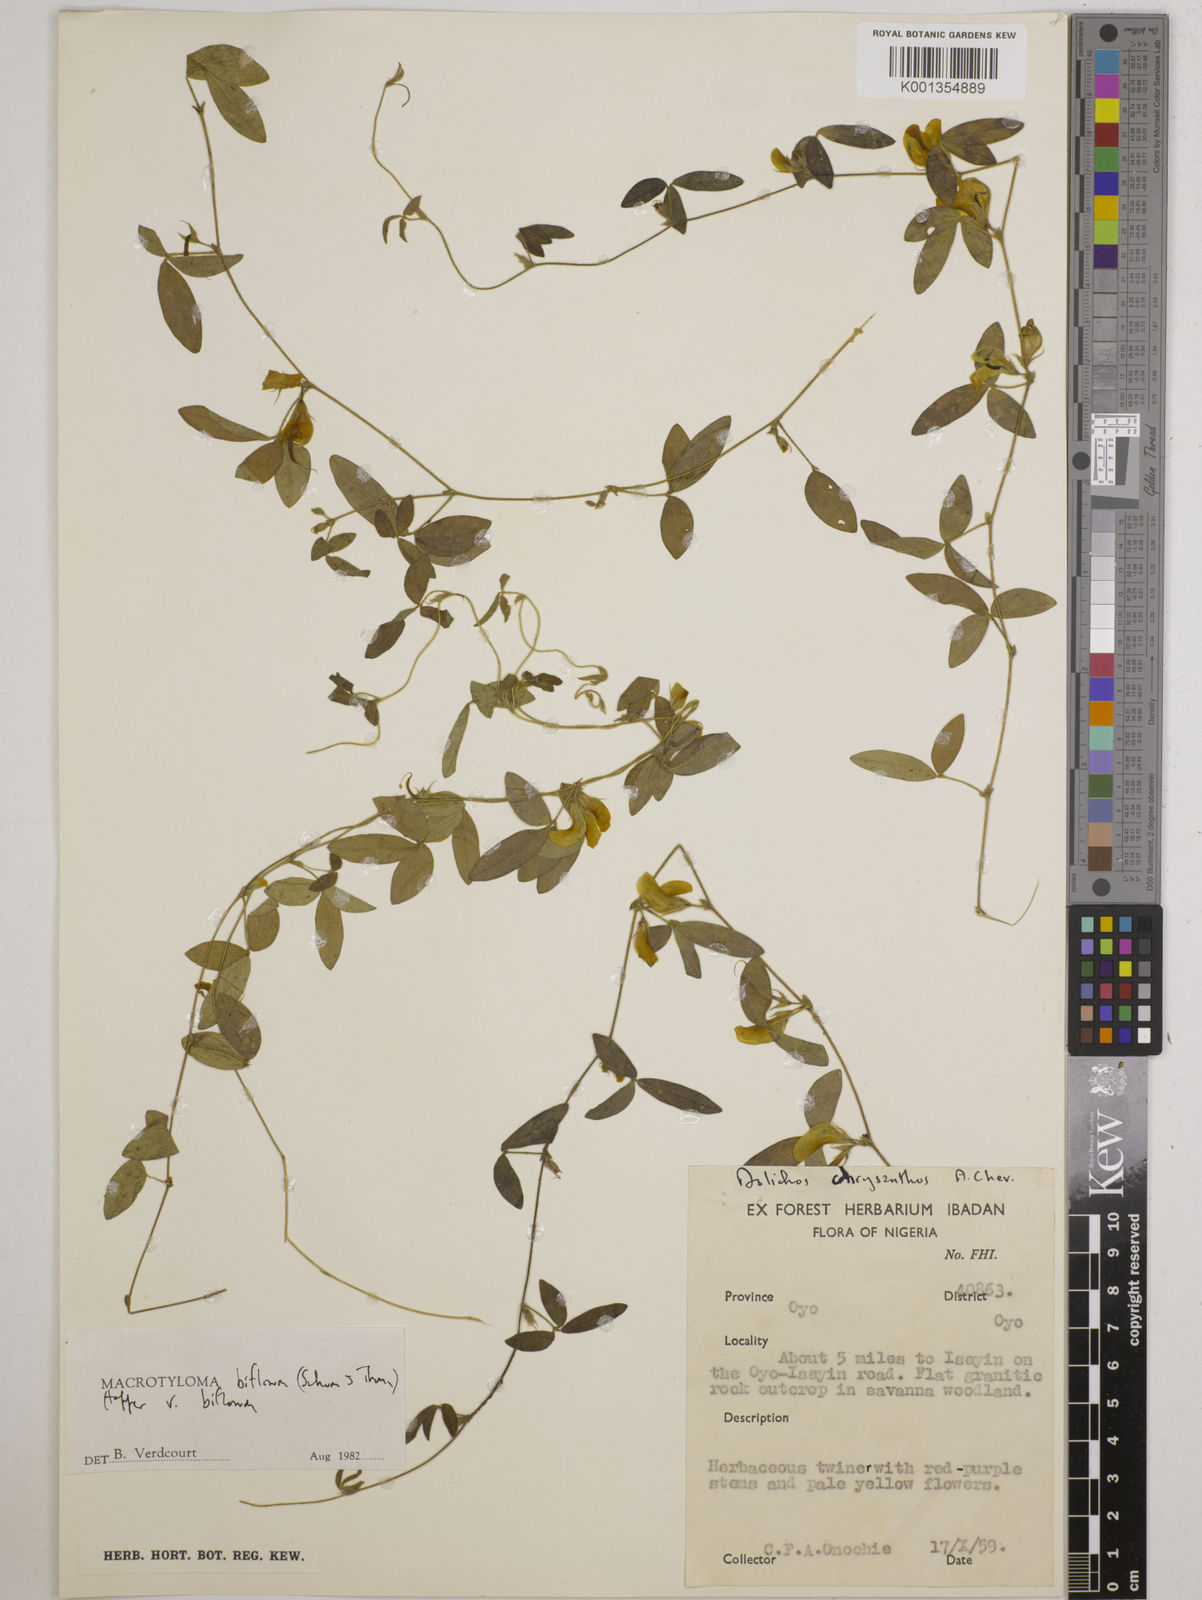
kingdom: Plantae
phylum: Tracheophyta
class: Magnoliopsida
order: Fabales
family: Fabaceae
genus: Macrotyloma
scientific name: Macrotyloma biflorum
